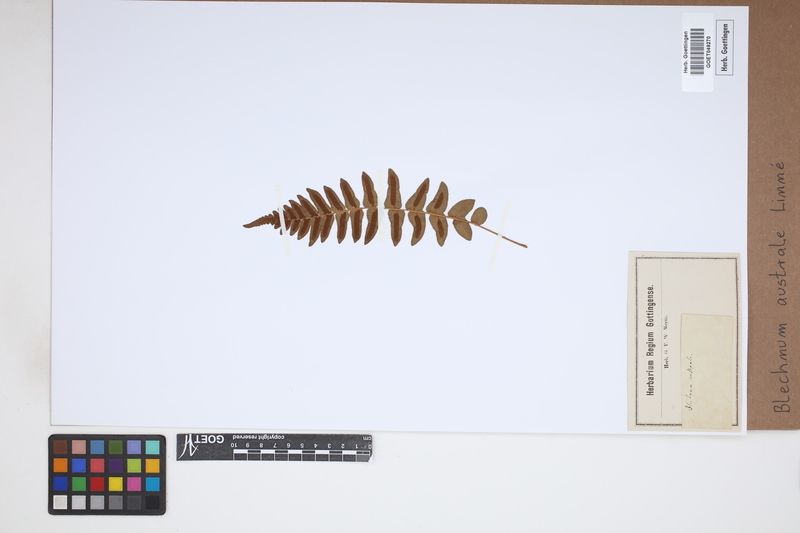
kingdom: Plantae
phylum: Tracheophyta
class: Polypodiopsida
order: Polypodiales
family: Blechnaceae
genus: Blechnum
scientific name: Blechnum australe
